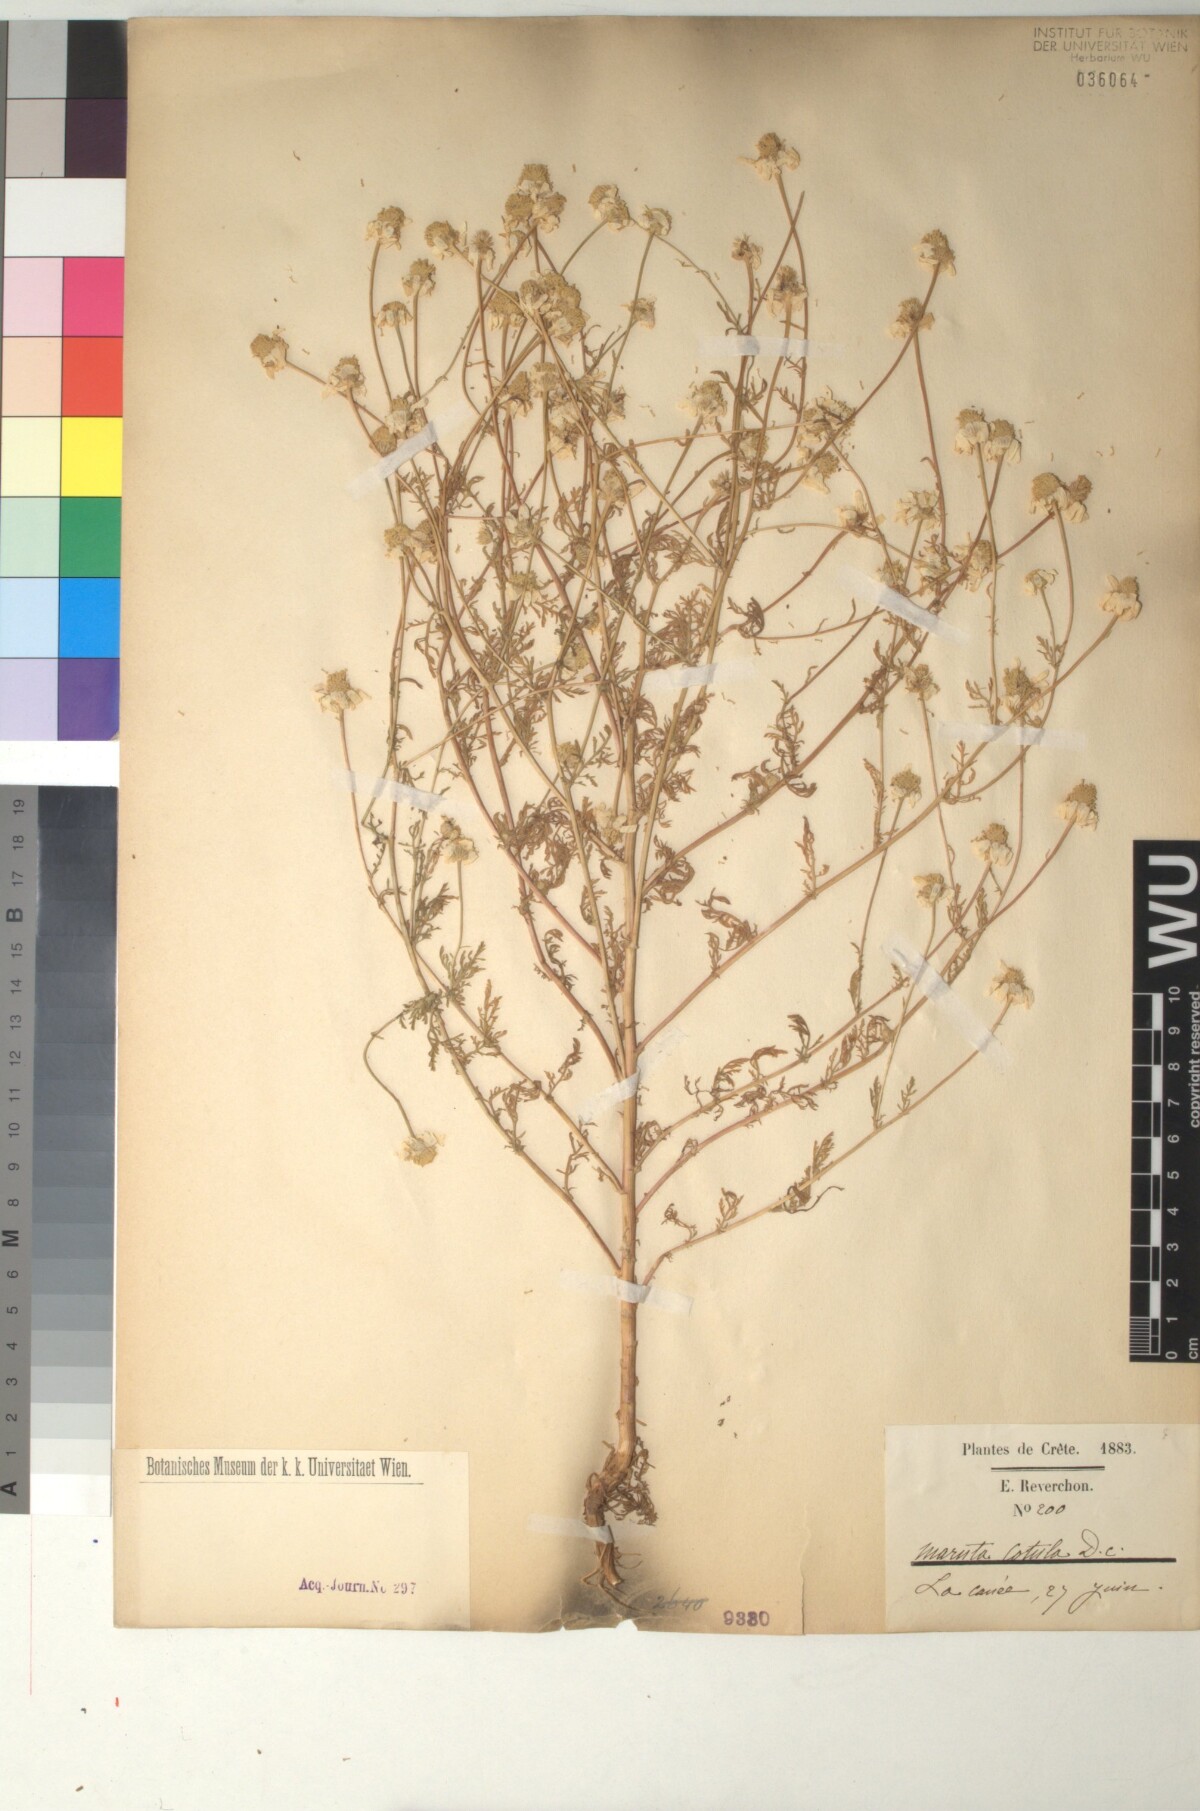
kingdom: Plantae
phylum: Tracheophyta
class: Magnoliopsida
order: Asterales
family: Asteraceae
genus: Anthemis
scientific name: Anthemis cotula
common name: Stinking chamomile
